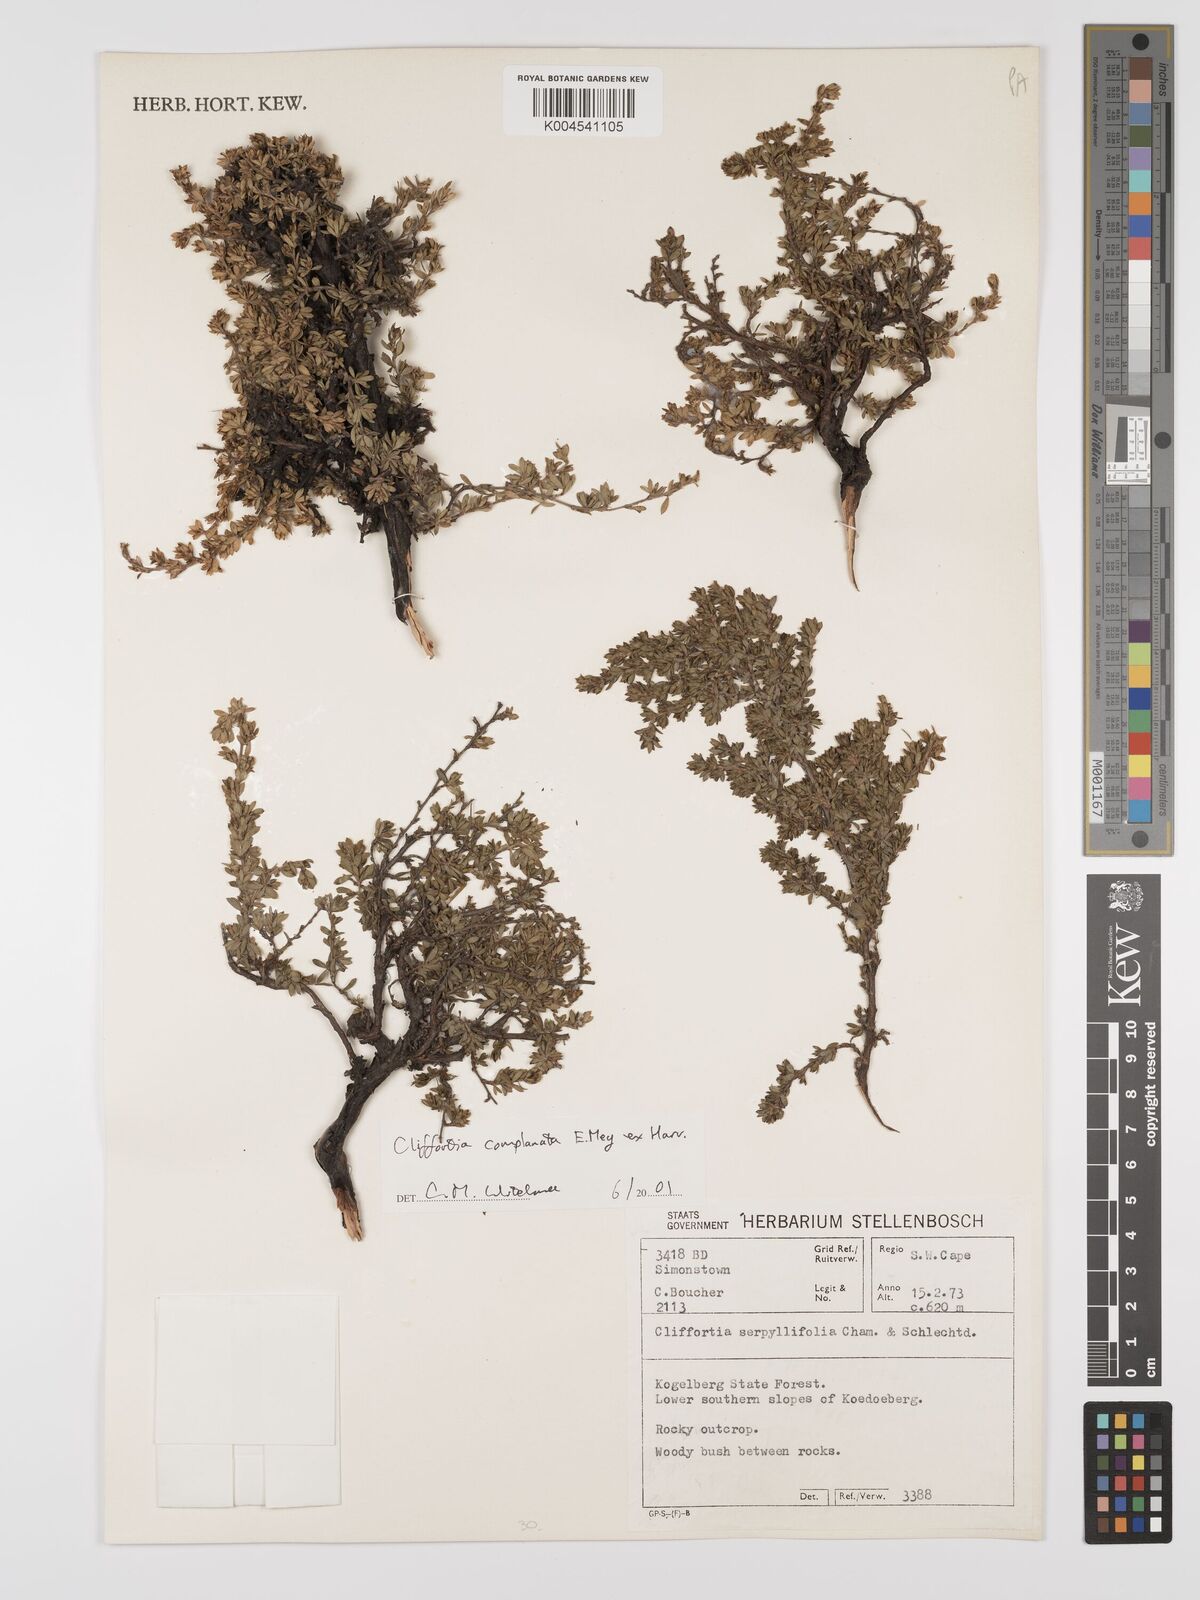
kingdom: Plantae
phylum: Tracheophyta
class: Magnoliopsida
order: Rosales
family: Rosaceae
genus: Cliffortia
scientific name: Cliffortia complanata
